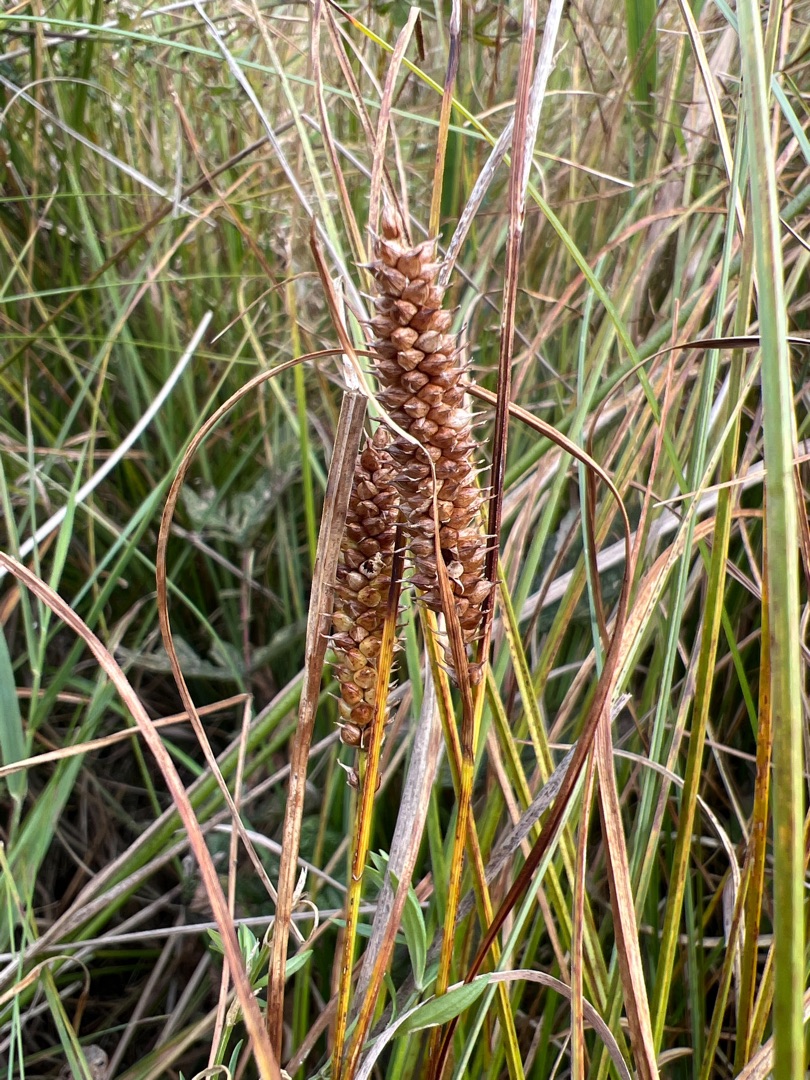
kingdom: Plantae
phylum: Tracheophyta
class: Liliopsida
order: Poales
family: Cyperaceae
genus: Carex
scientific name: Carex rostrata
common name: Næb-star
